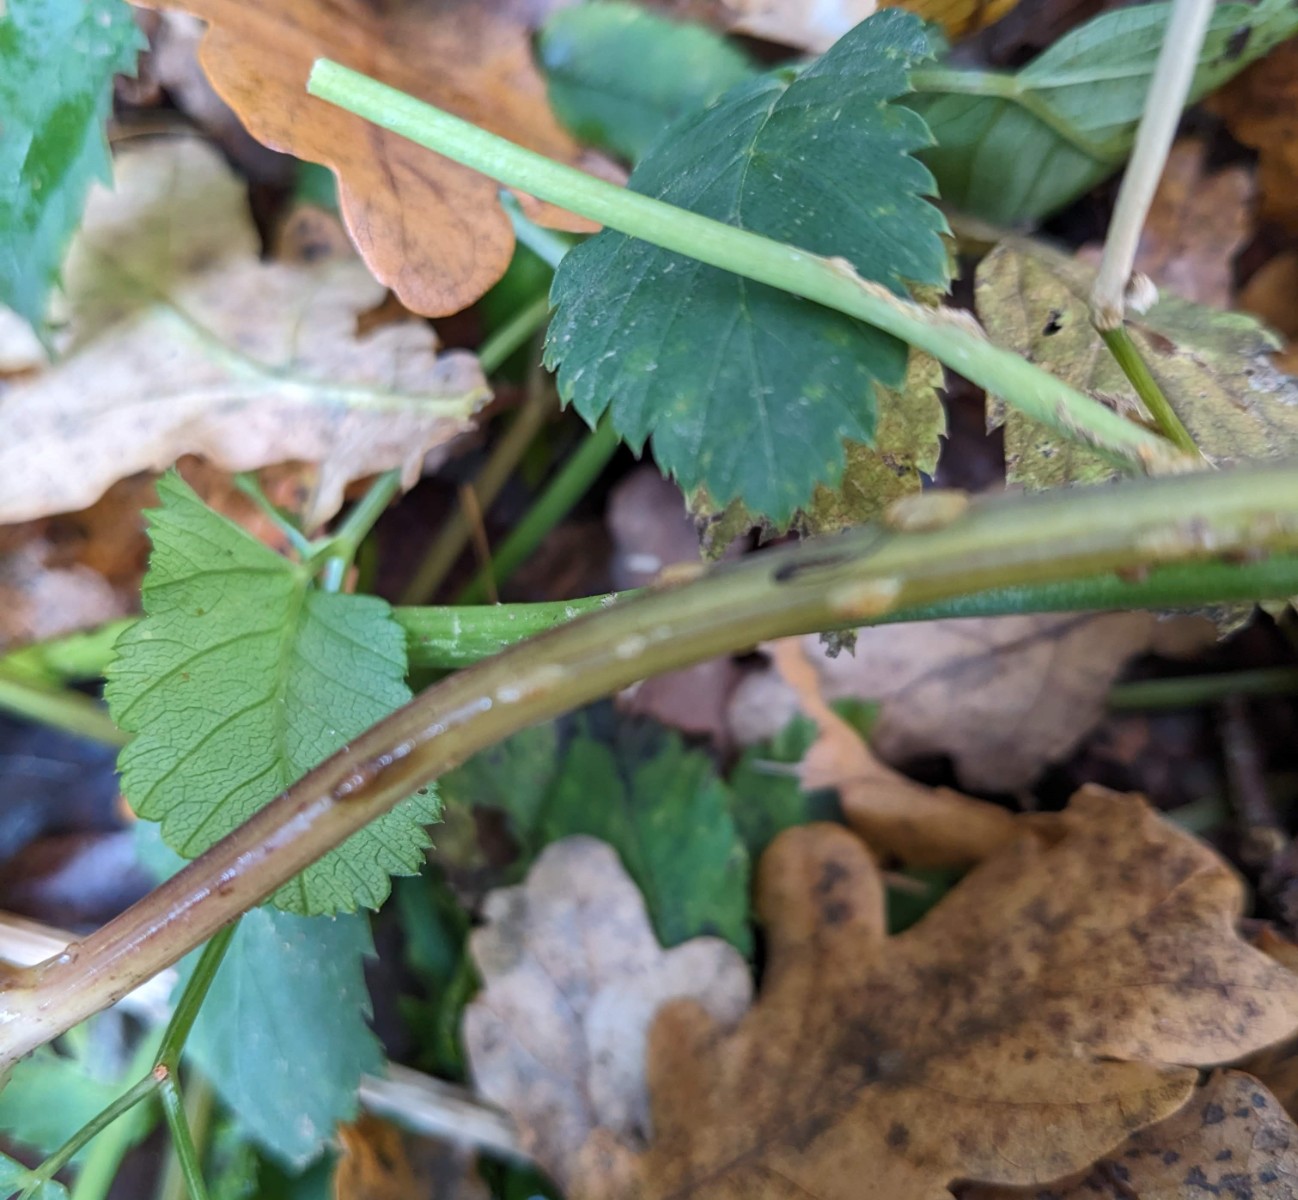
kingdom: Fungi
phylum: Ascomycota
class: Taphrinomycetes
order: Taphrinales
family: Taphrinaceae
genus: Protomyces
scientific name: Protomyces macrosporus
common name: skvalderkål-vablesæk
